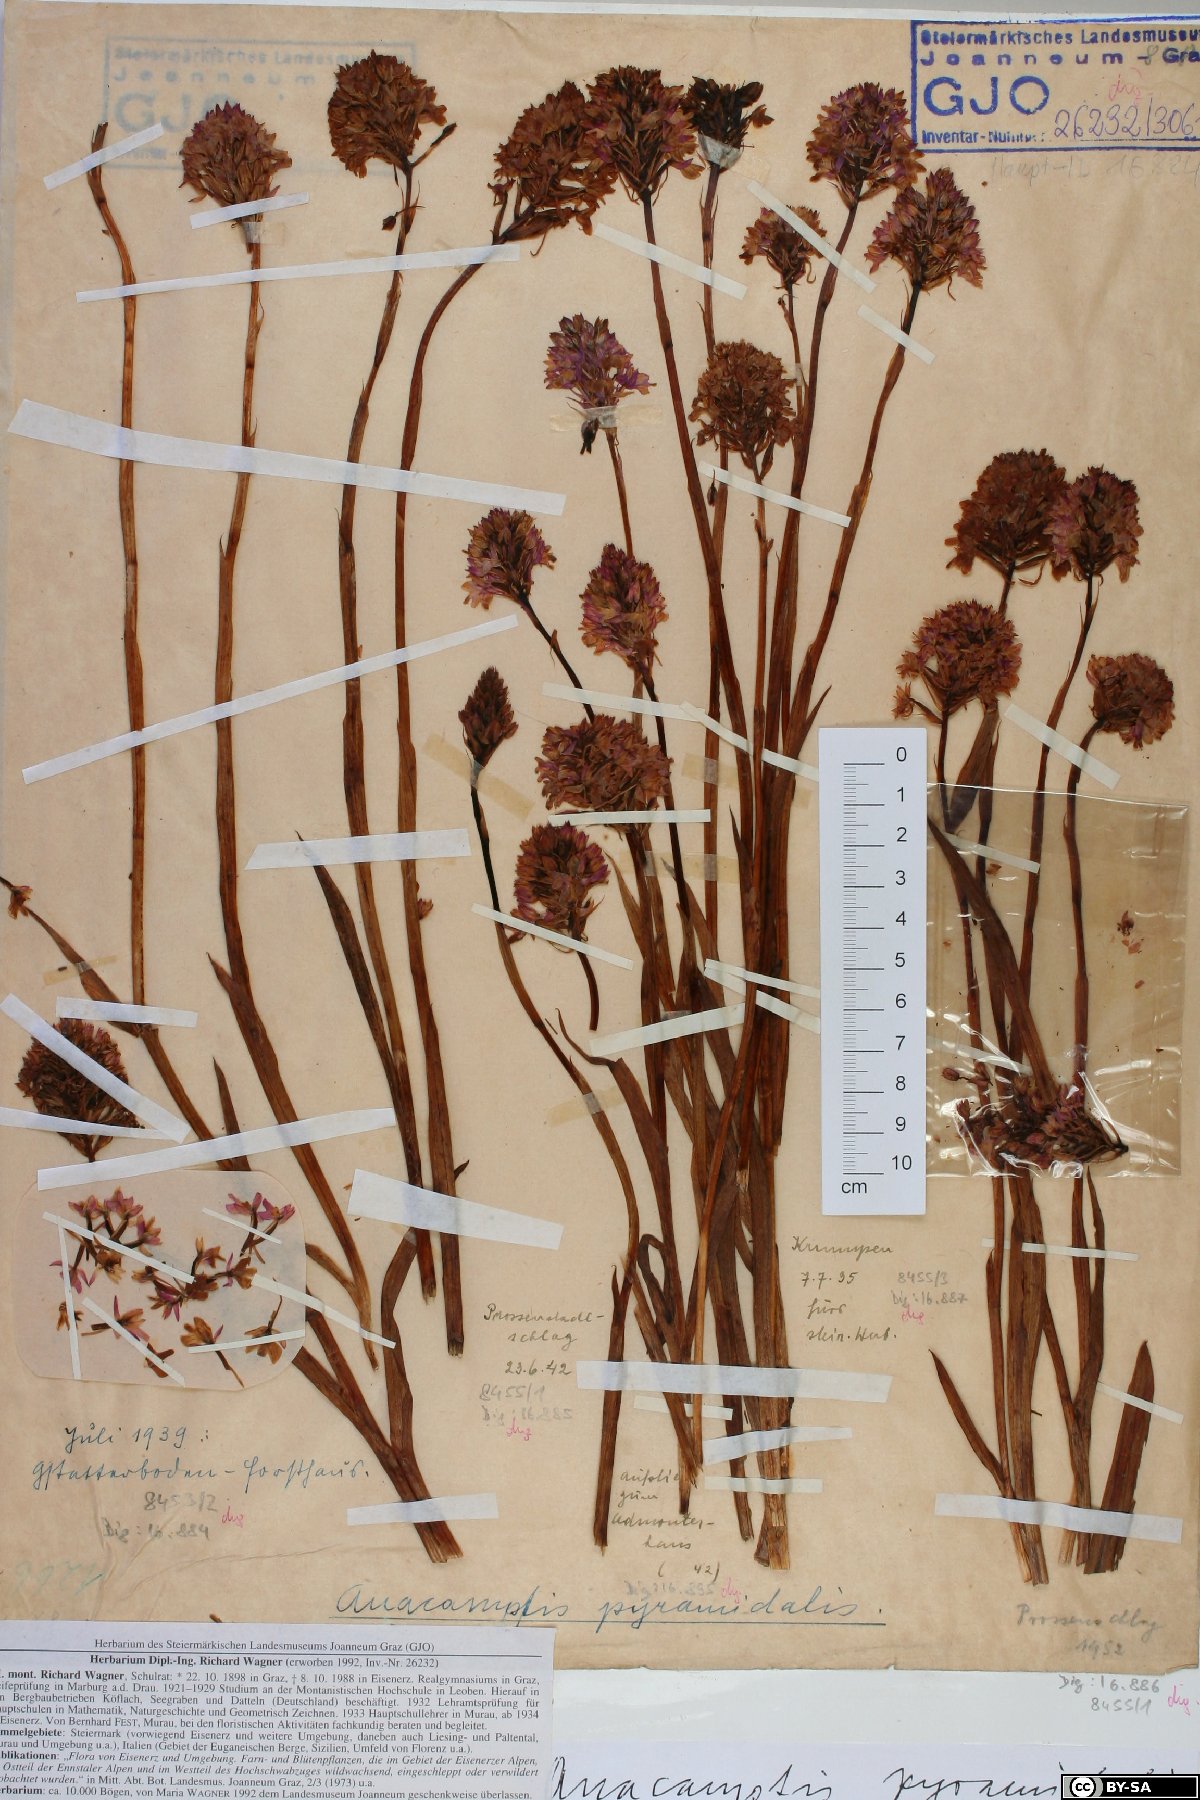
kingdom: Plantae
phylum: Tracheophyta
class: Liliopsida
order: Asparagales
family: Orchidaceae
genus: Anacamptis
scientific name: Anacamptis pyramidalis
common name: Pyramidal orchid
